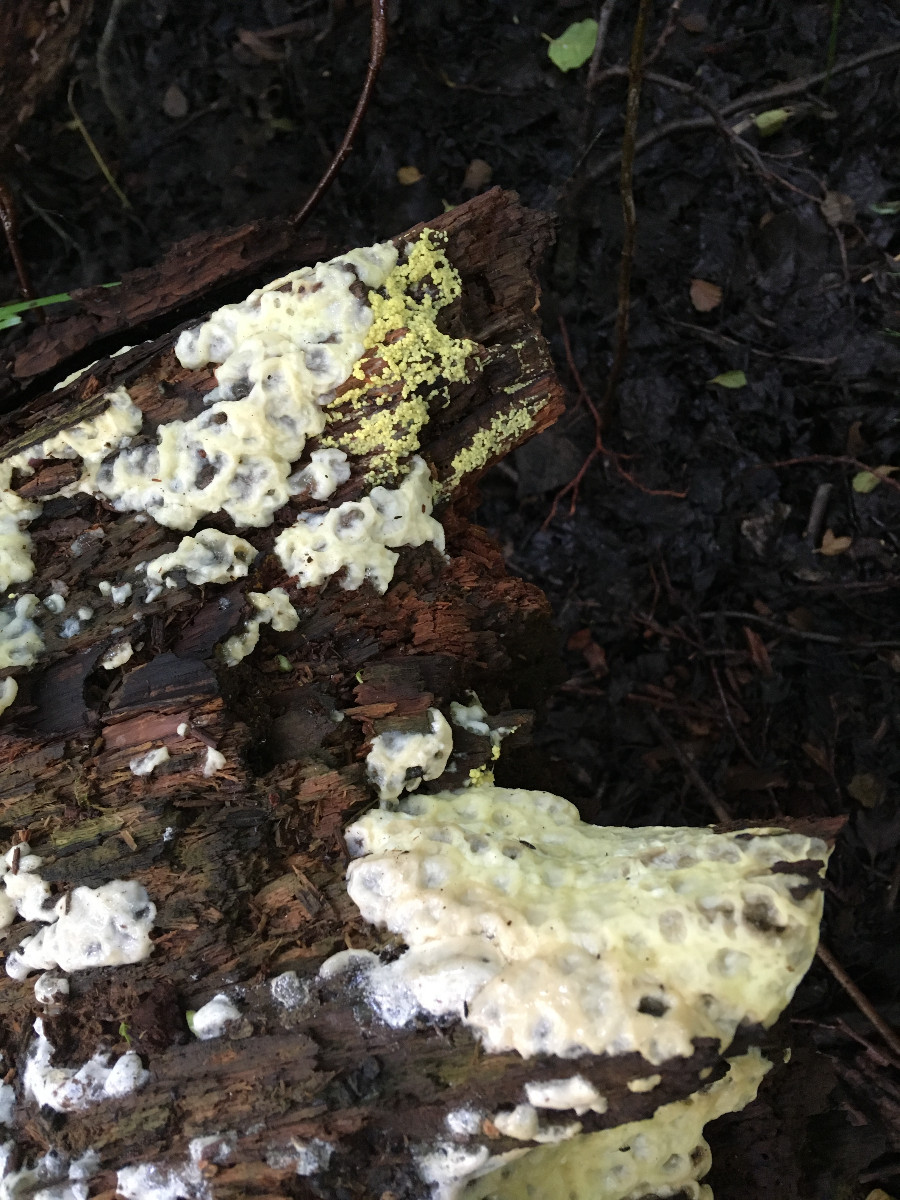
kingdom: Protozoa
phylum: Mycetozoa
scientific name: Mycetozoa
